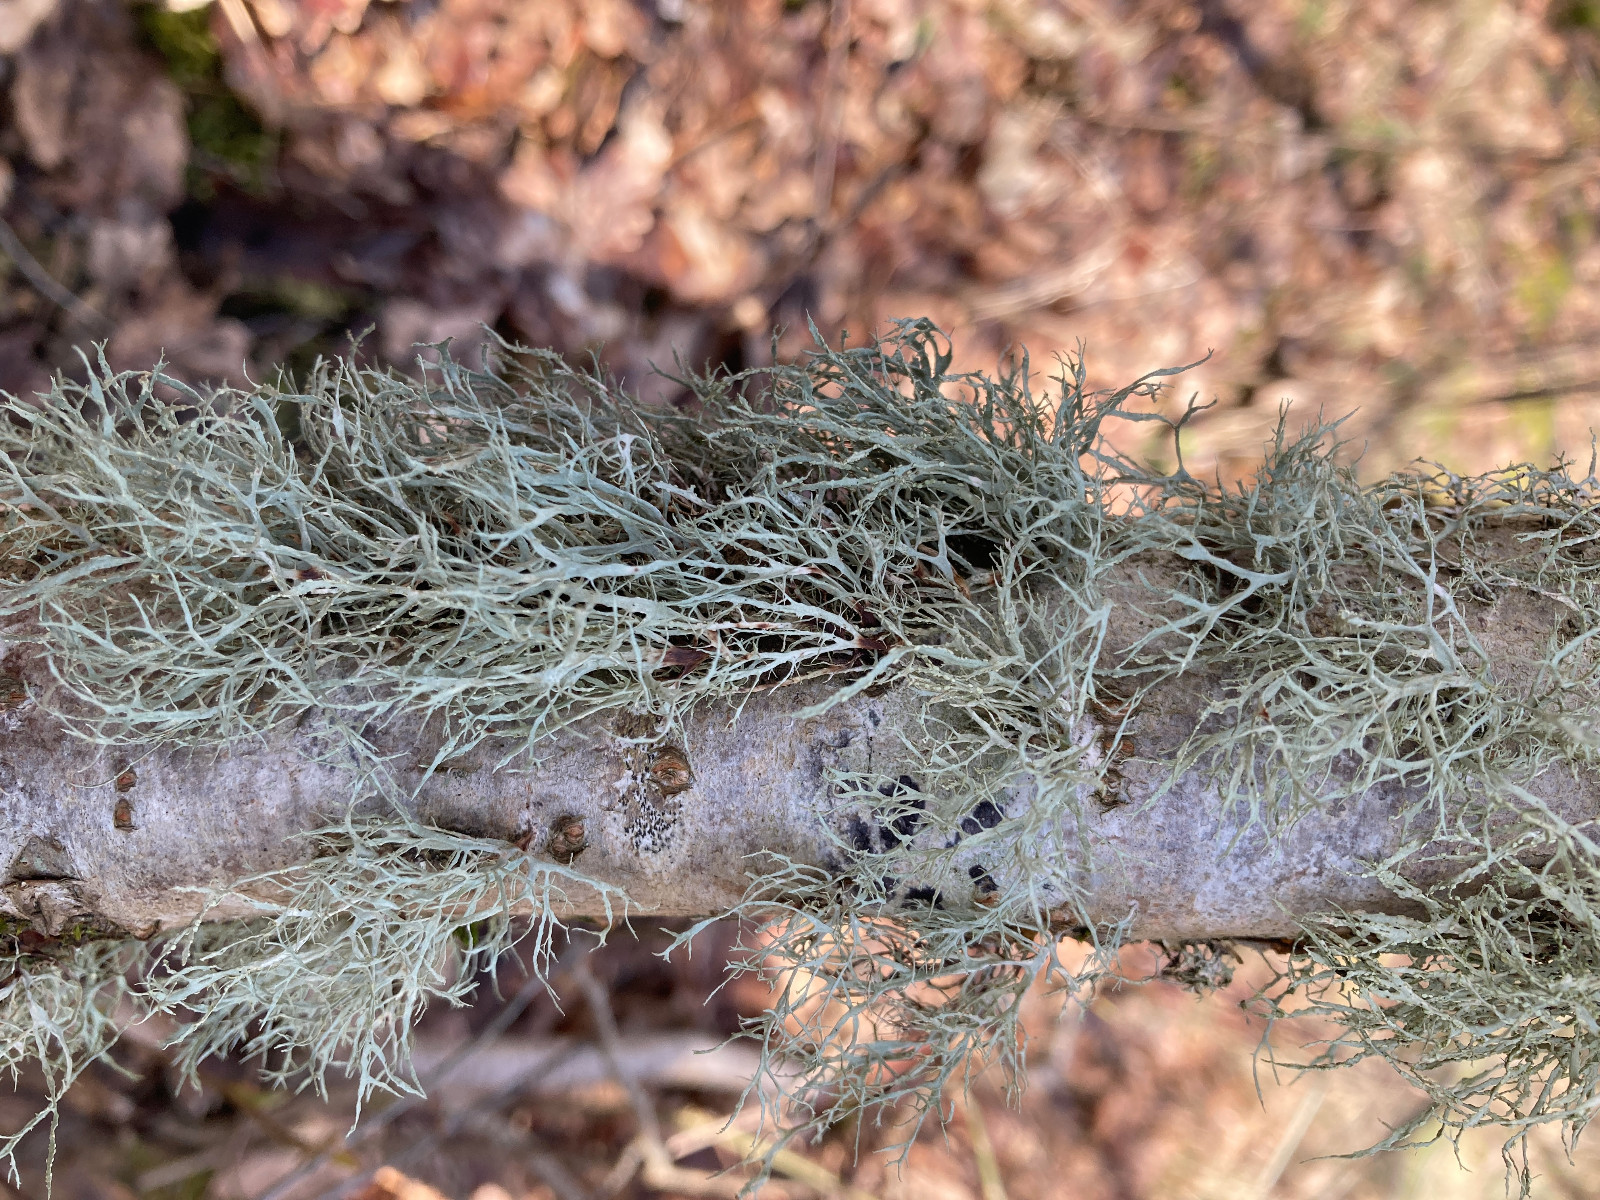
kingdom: Fungi
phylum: Ascomycota
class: Lecanoromycetes
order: Lecanorales
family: Ramalinaceae
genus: Ramalina
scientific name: Ramalina farinacea
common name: melet grenlav
